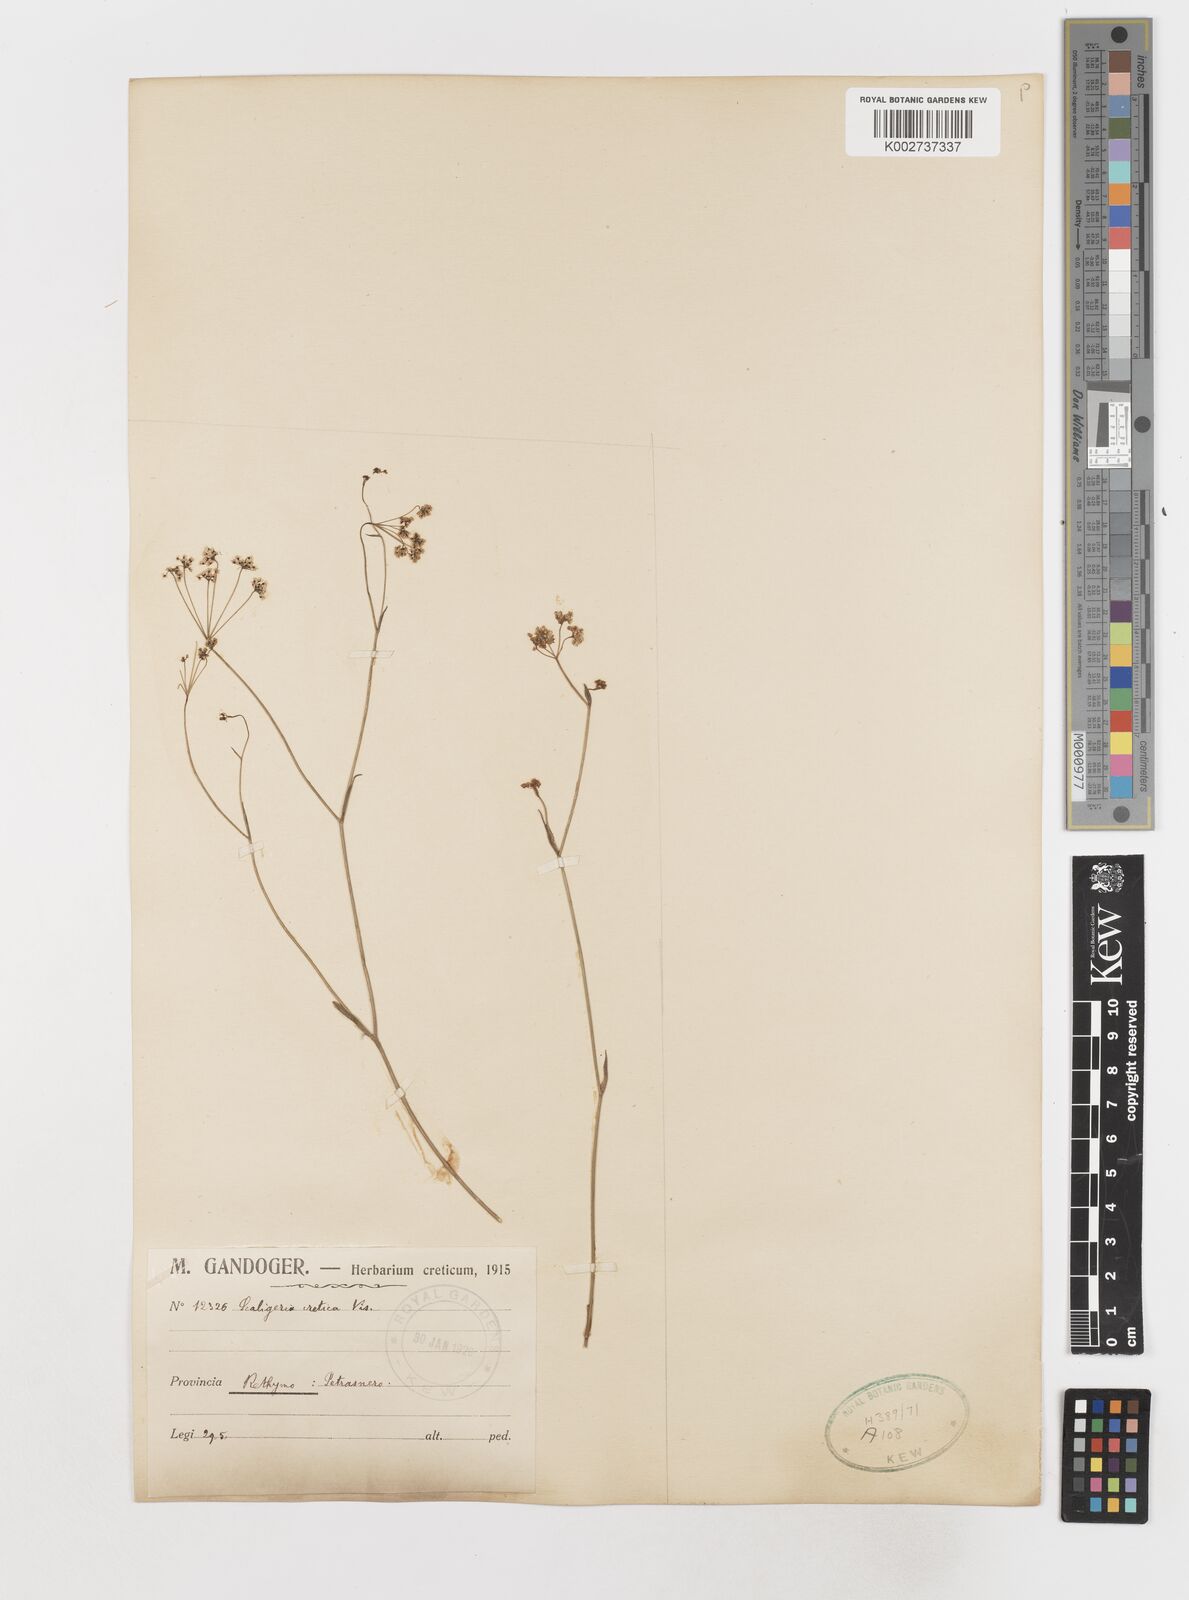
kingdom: Plantae
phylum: Tracheophyta
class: Magnoliopsida
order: Apiales
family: Apiaceae
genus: Scaligeria
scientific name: Scaligeria napiformis
